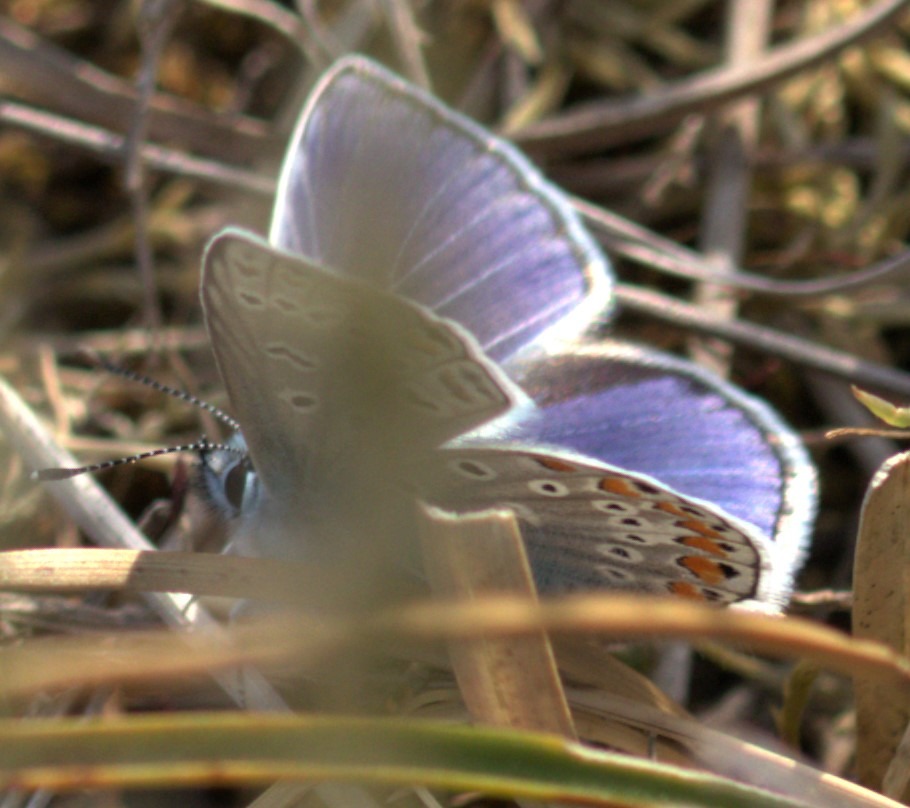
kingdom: Animalia
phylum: Arthropoda
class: Insecta
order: Lepidoptera
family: Lycaenidae
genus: Polyommatus
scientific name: Polyommatus icarus
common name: Almindelig blåfugl
